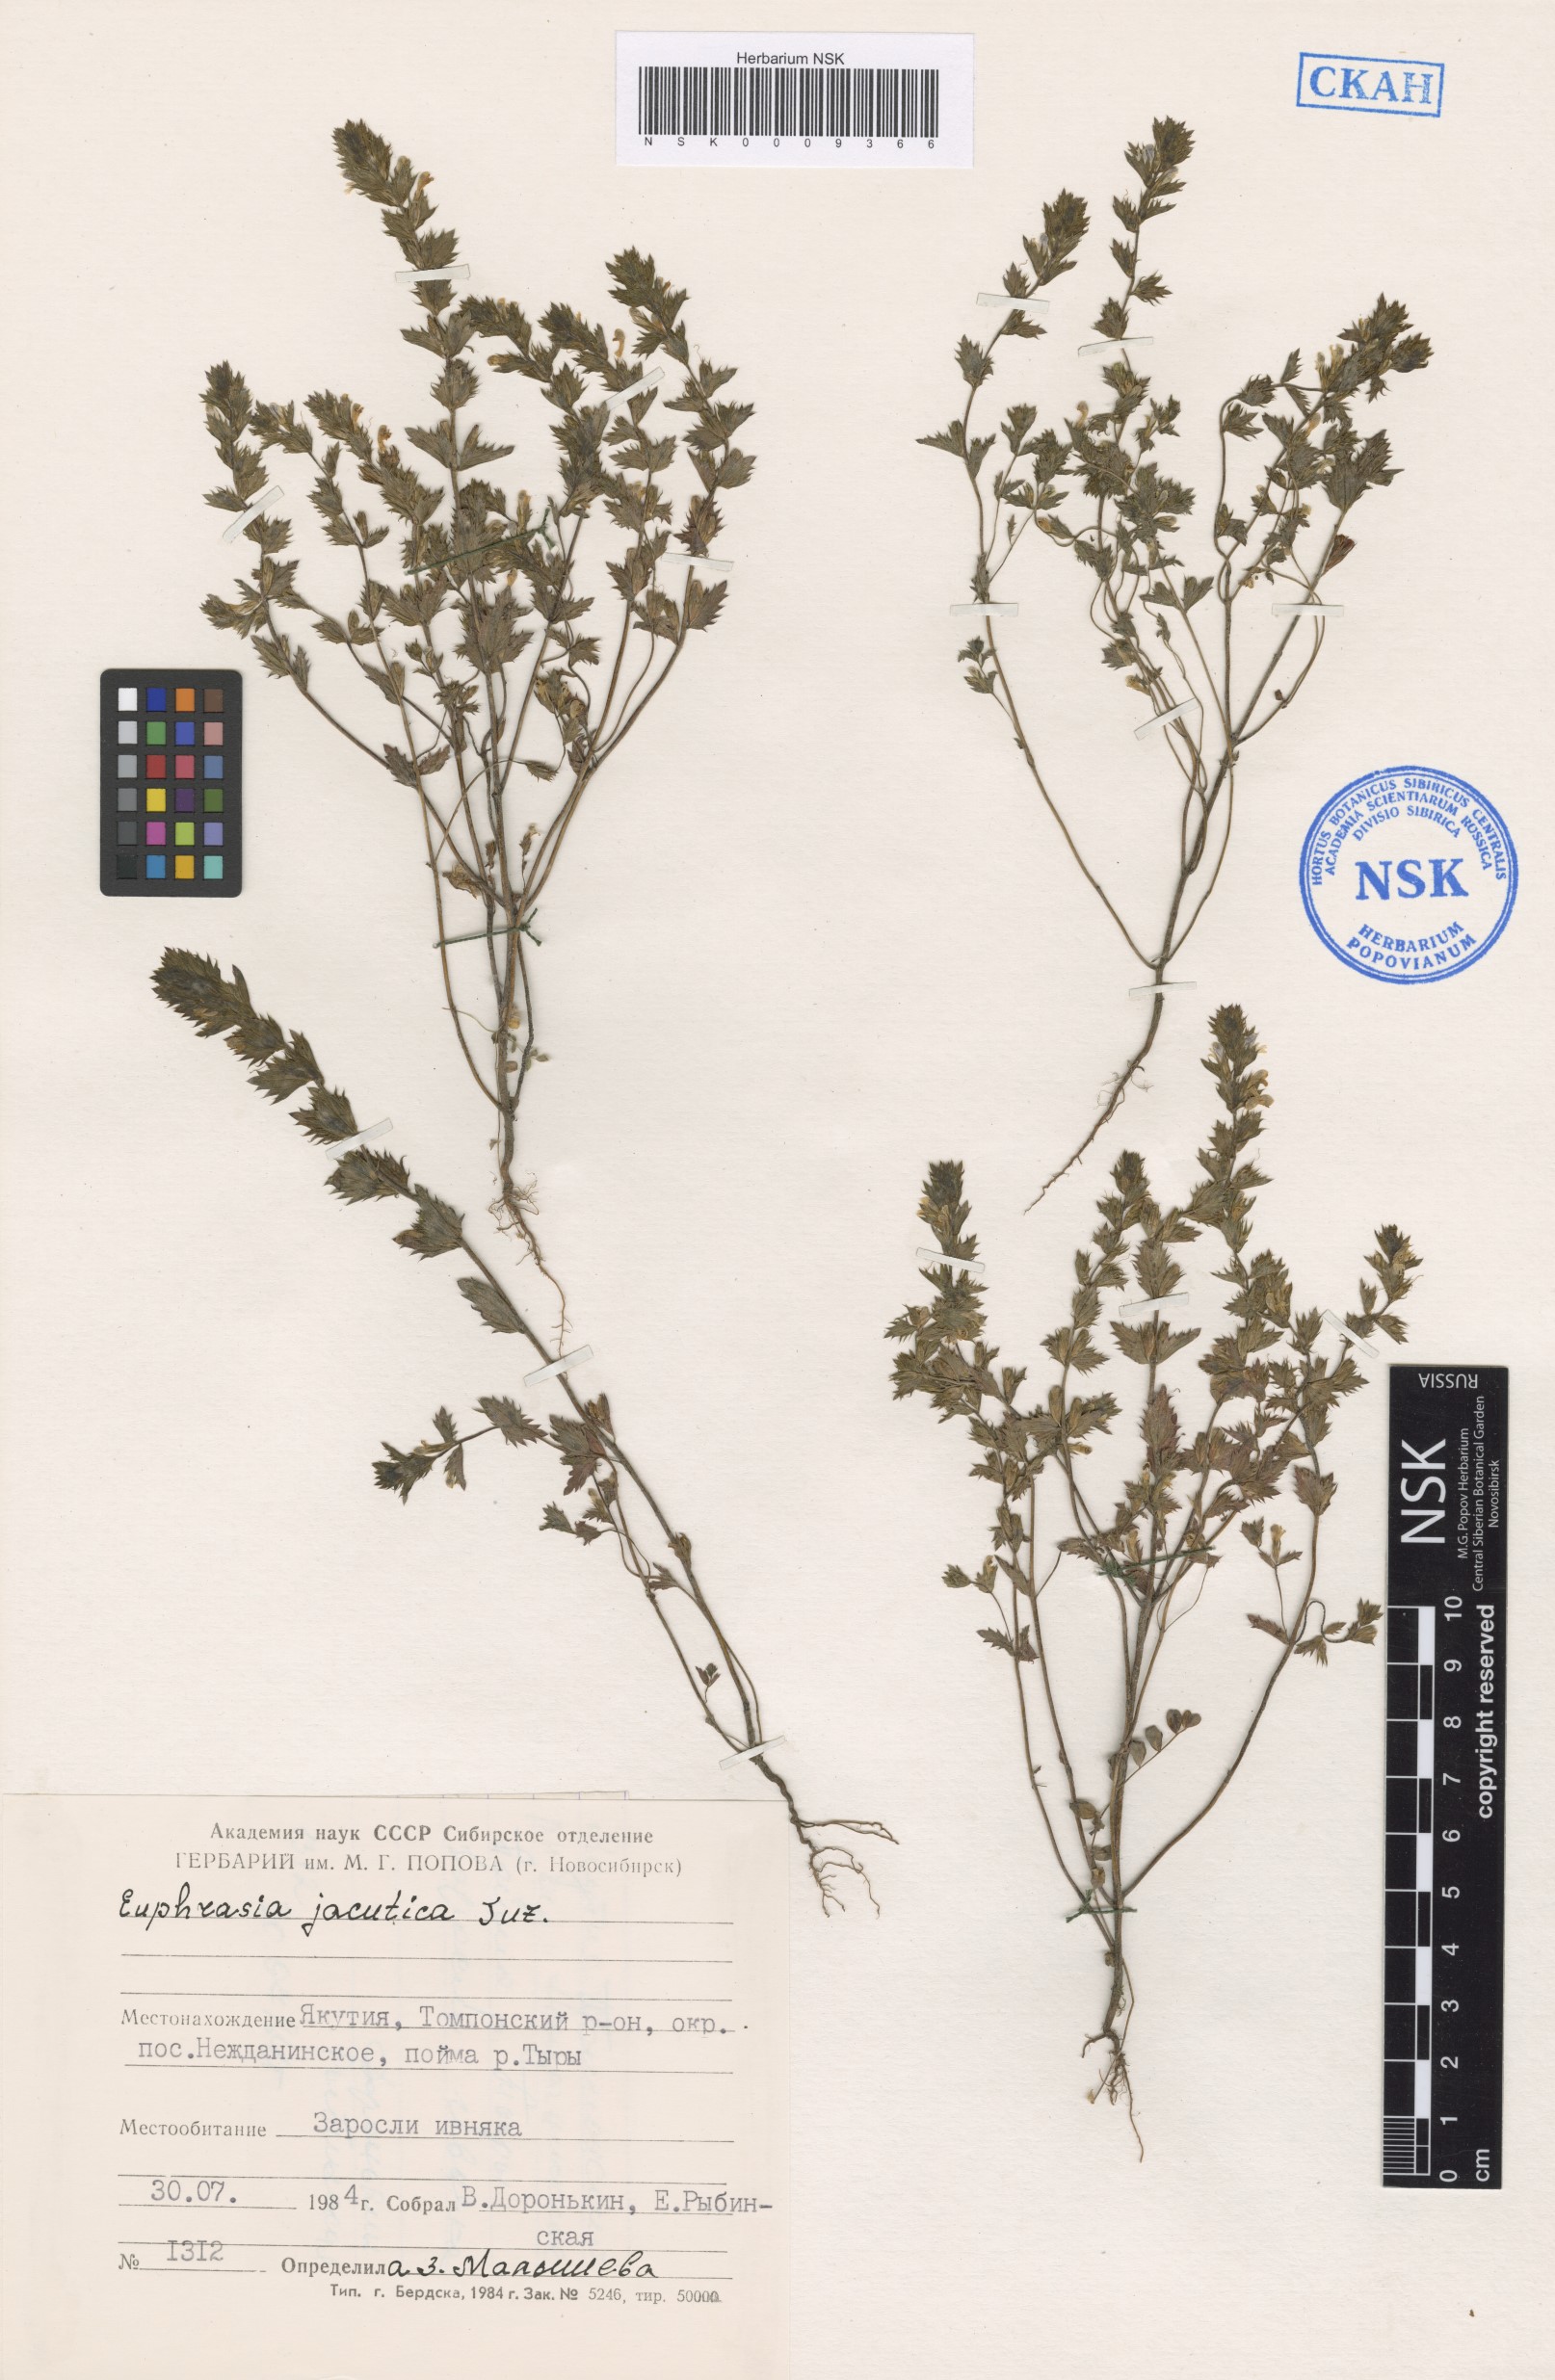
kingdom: Plantae
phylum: Tracheophyta
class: Magnoliopsida
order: Lamiales
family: Orobanchaceae
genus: Euphrasia
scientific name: Euphrasia jacutica
